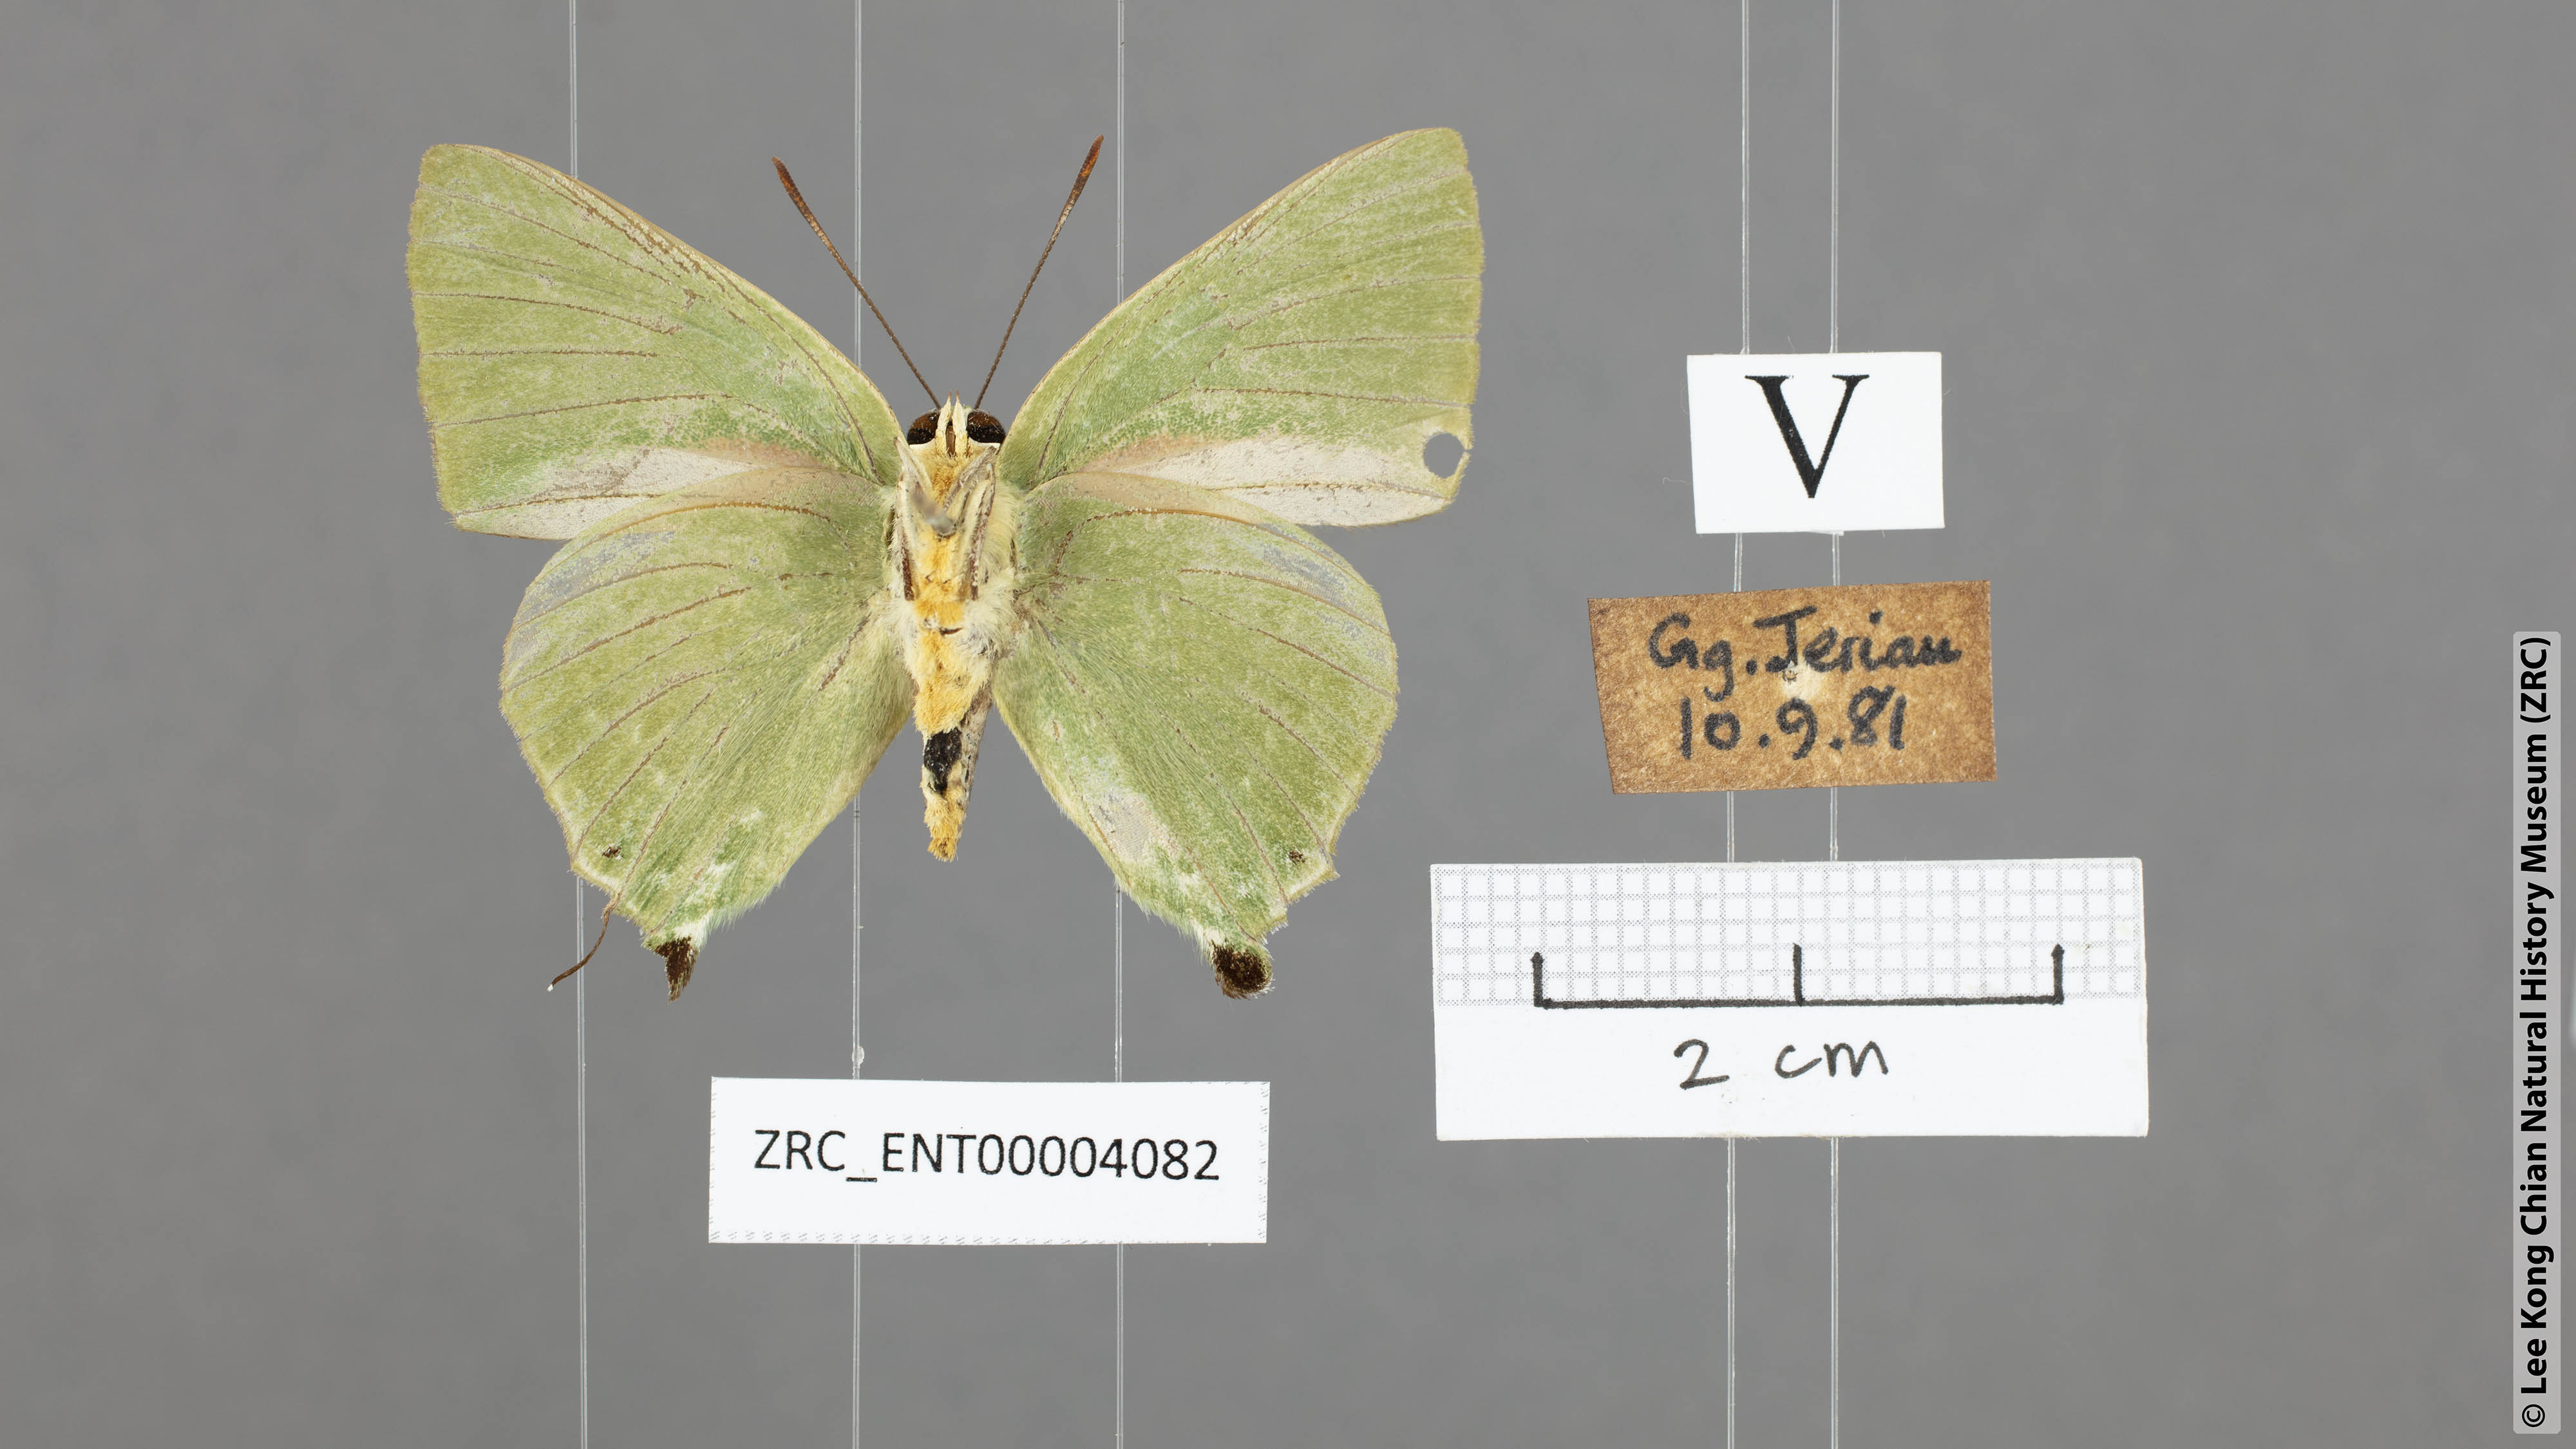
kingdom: Animalia
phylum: Arthropoda
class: Insecta
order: Lepidoptera
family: Lycaenidae
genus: Artipe
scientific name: Artipe eryx
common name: Green flash
